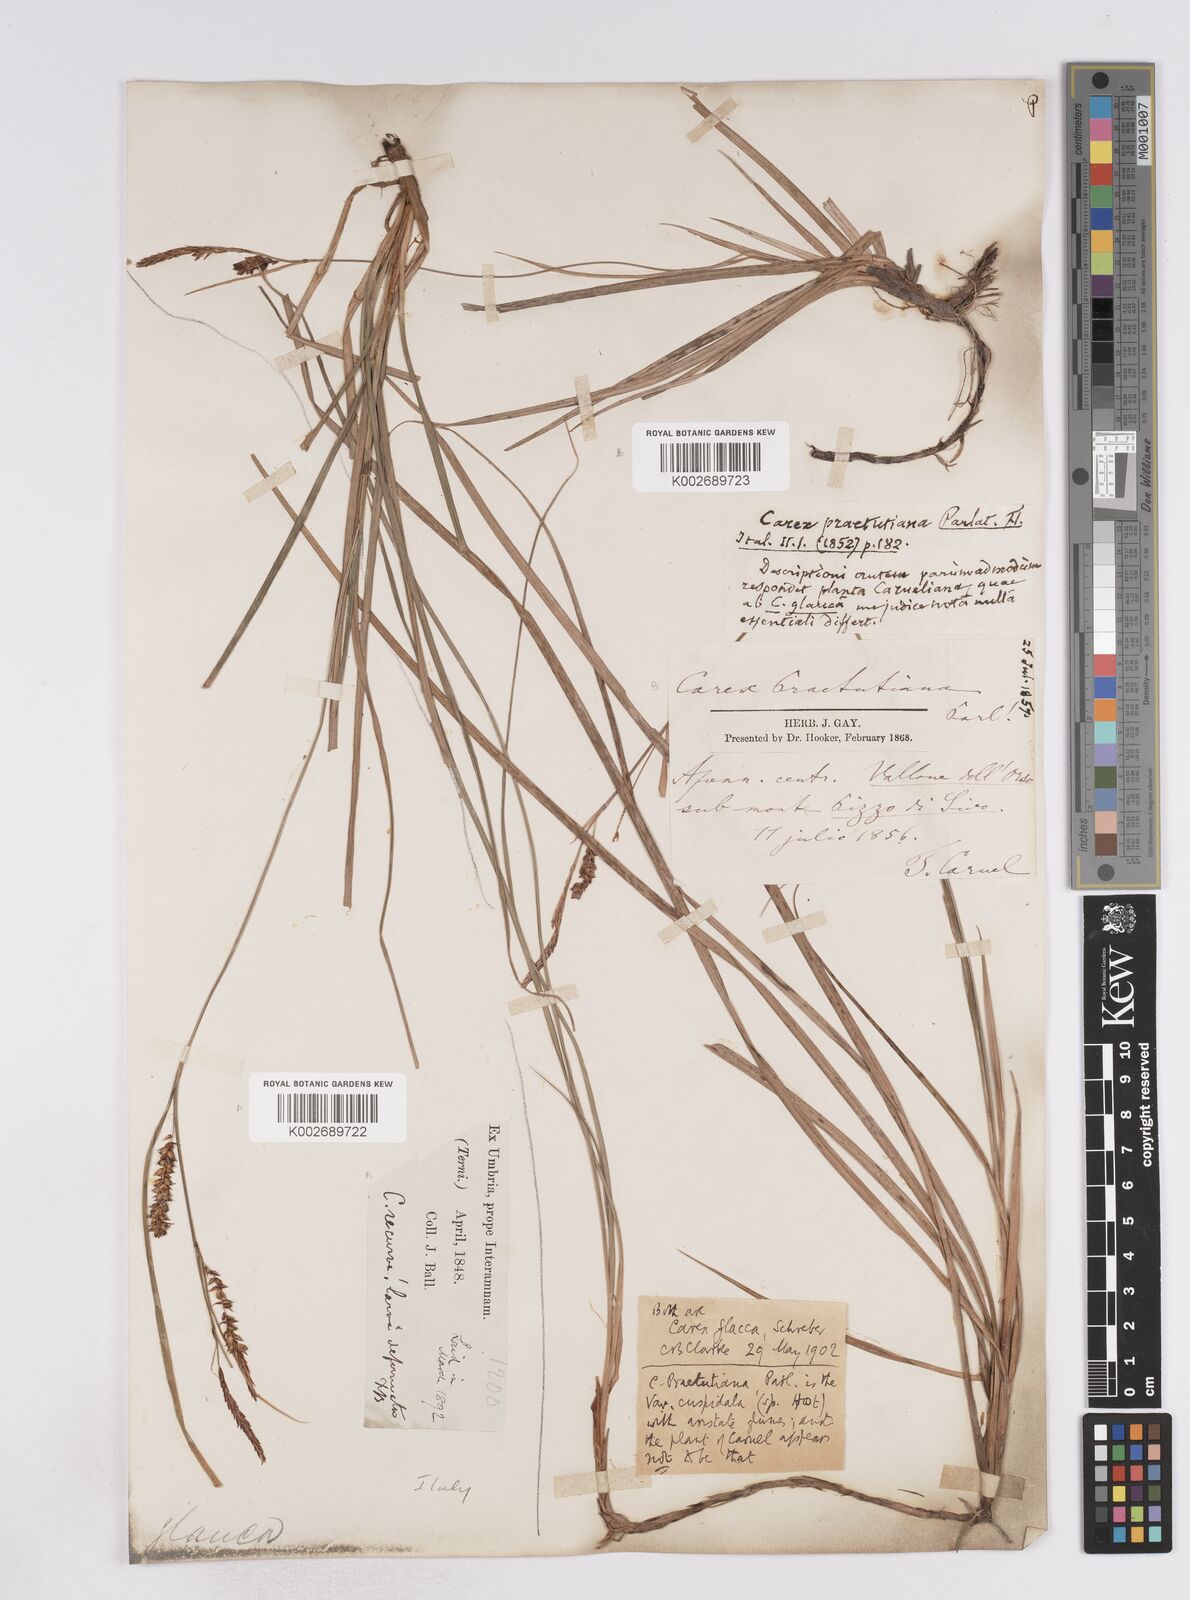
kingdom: Plantae
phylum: Tracheophyta
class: Liliopsida
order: Poales
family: Cyperaceae
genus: Carex
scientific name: Carex flacca
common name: Glaucous sedge
